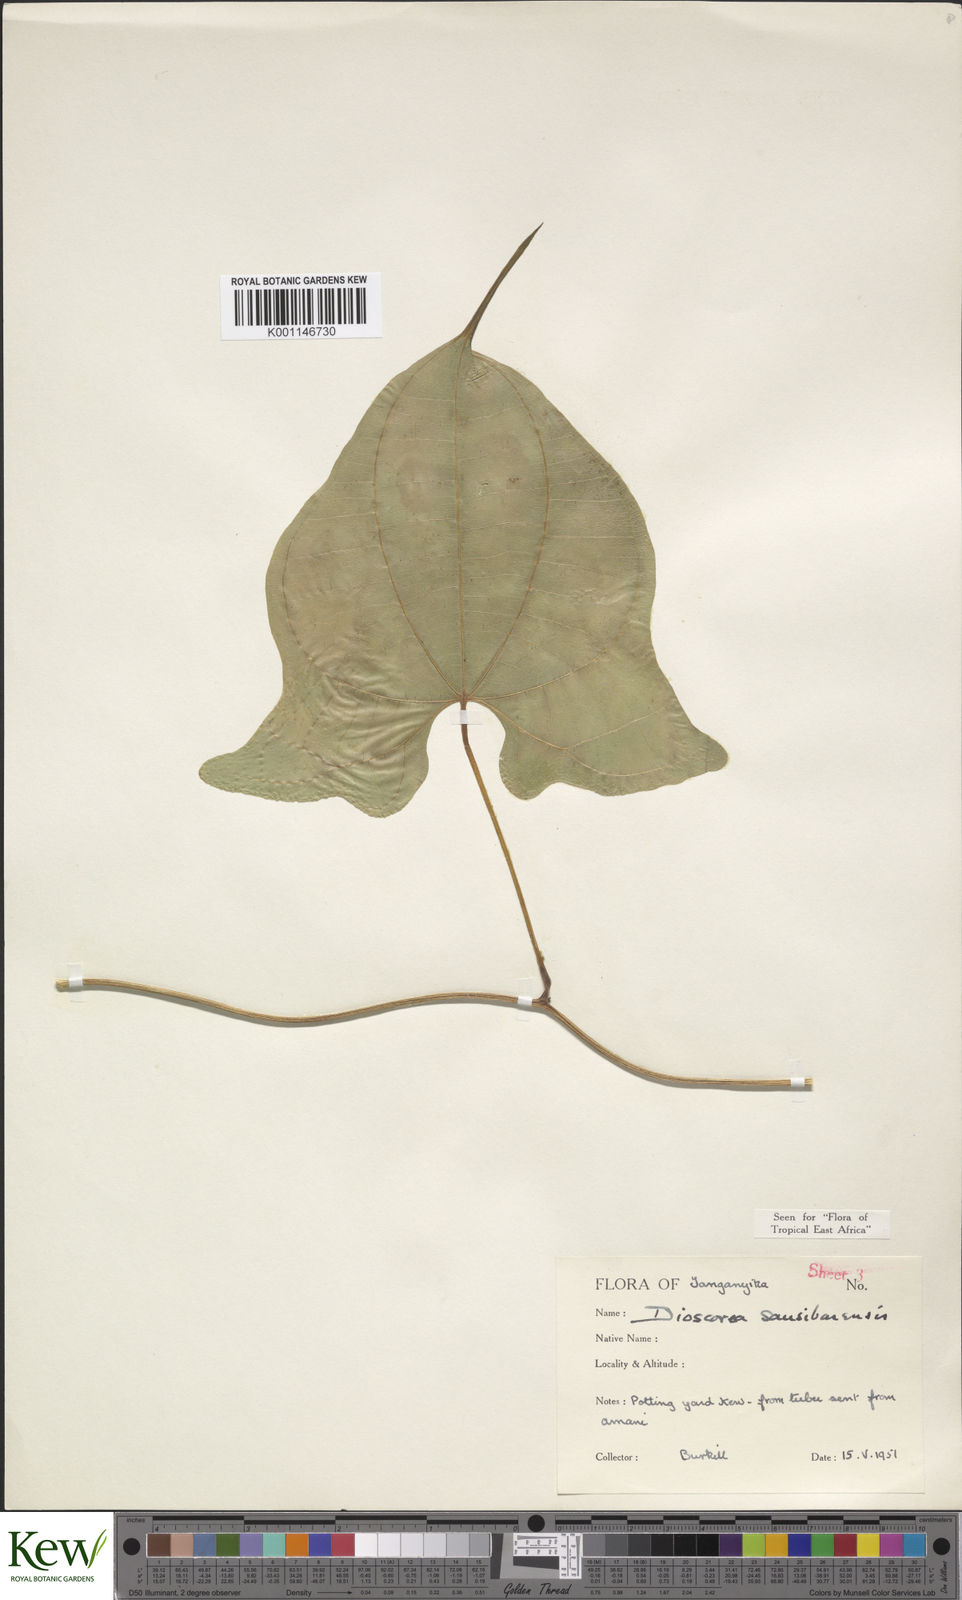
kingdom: Plantae
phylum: Tracheophyta
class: Liliopsida
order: Dioscoreales
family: Dioscoreaceae
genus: Dioscorea
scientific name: Dioscorea sansibarensis
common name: Zanzibar yam
